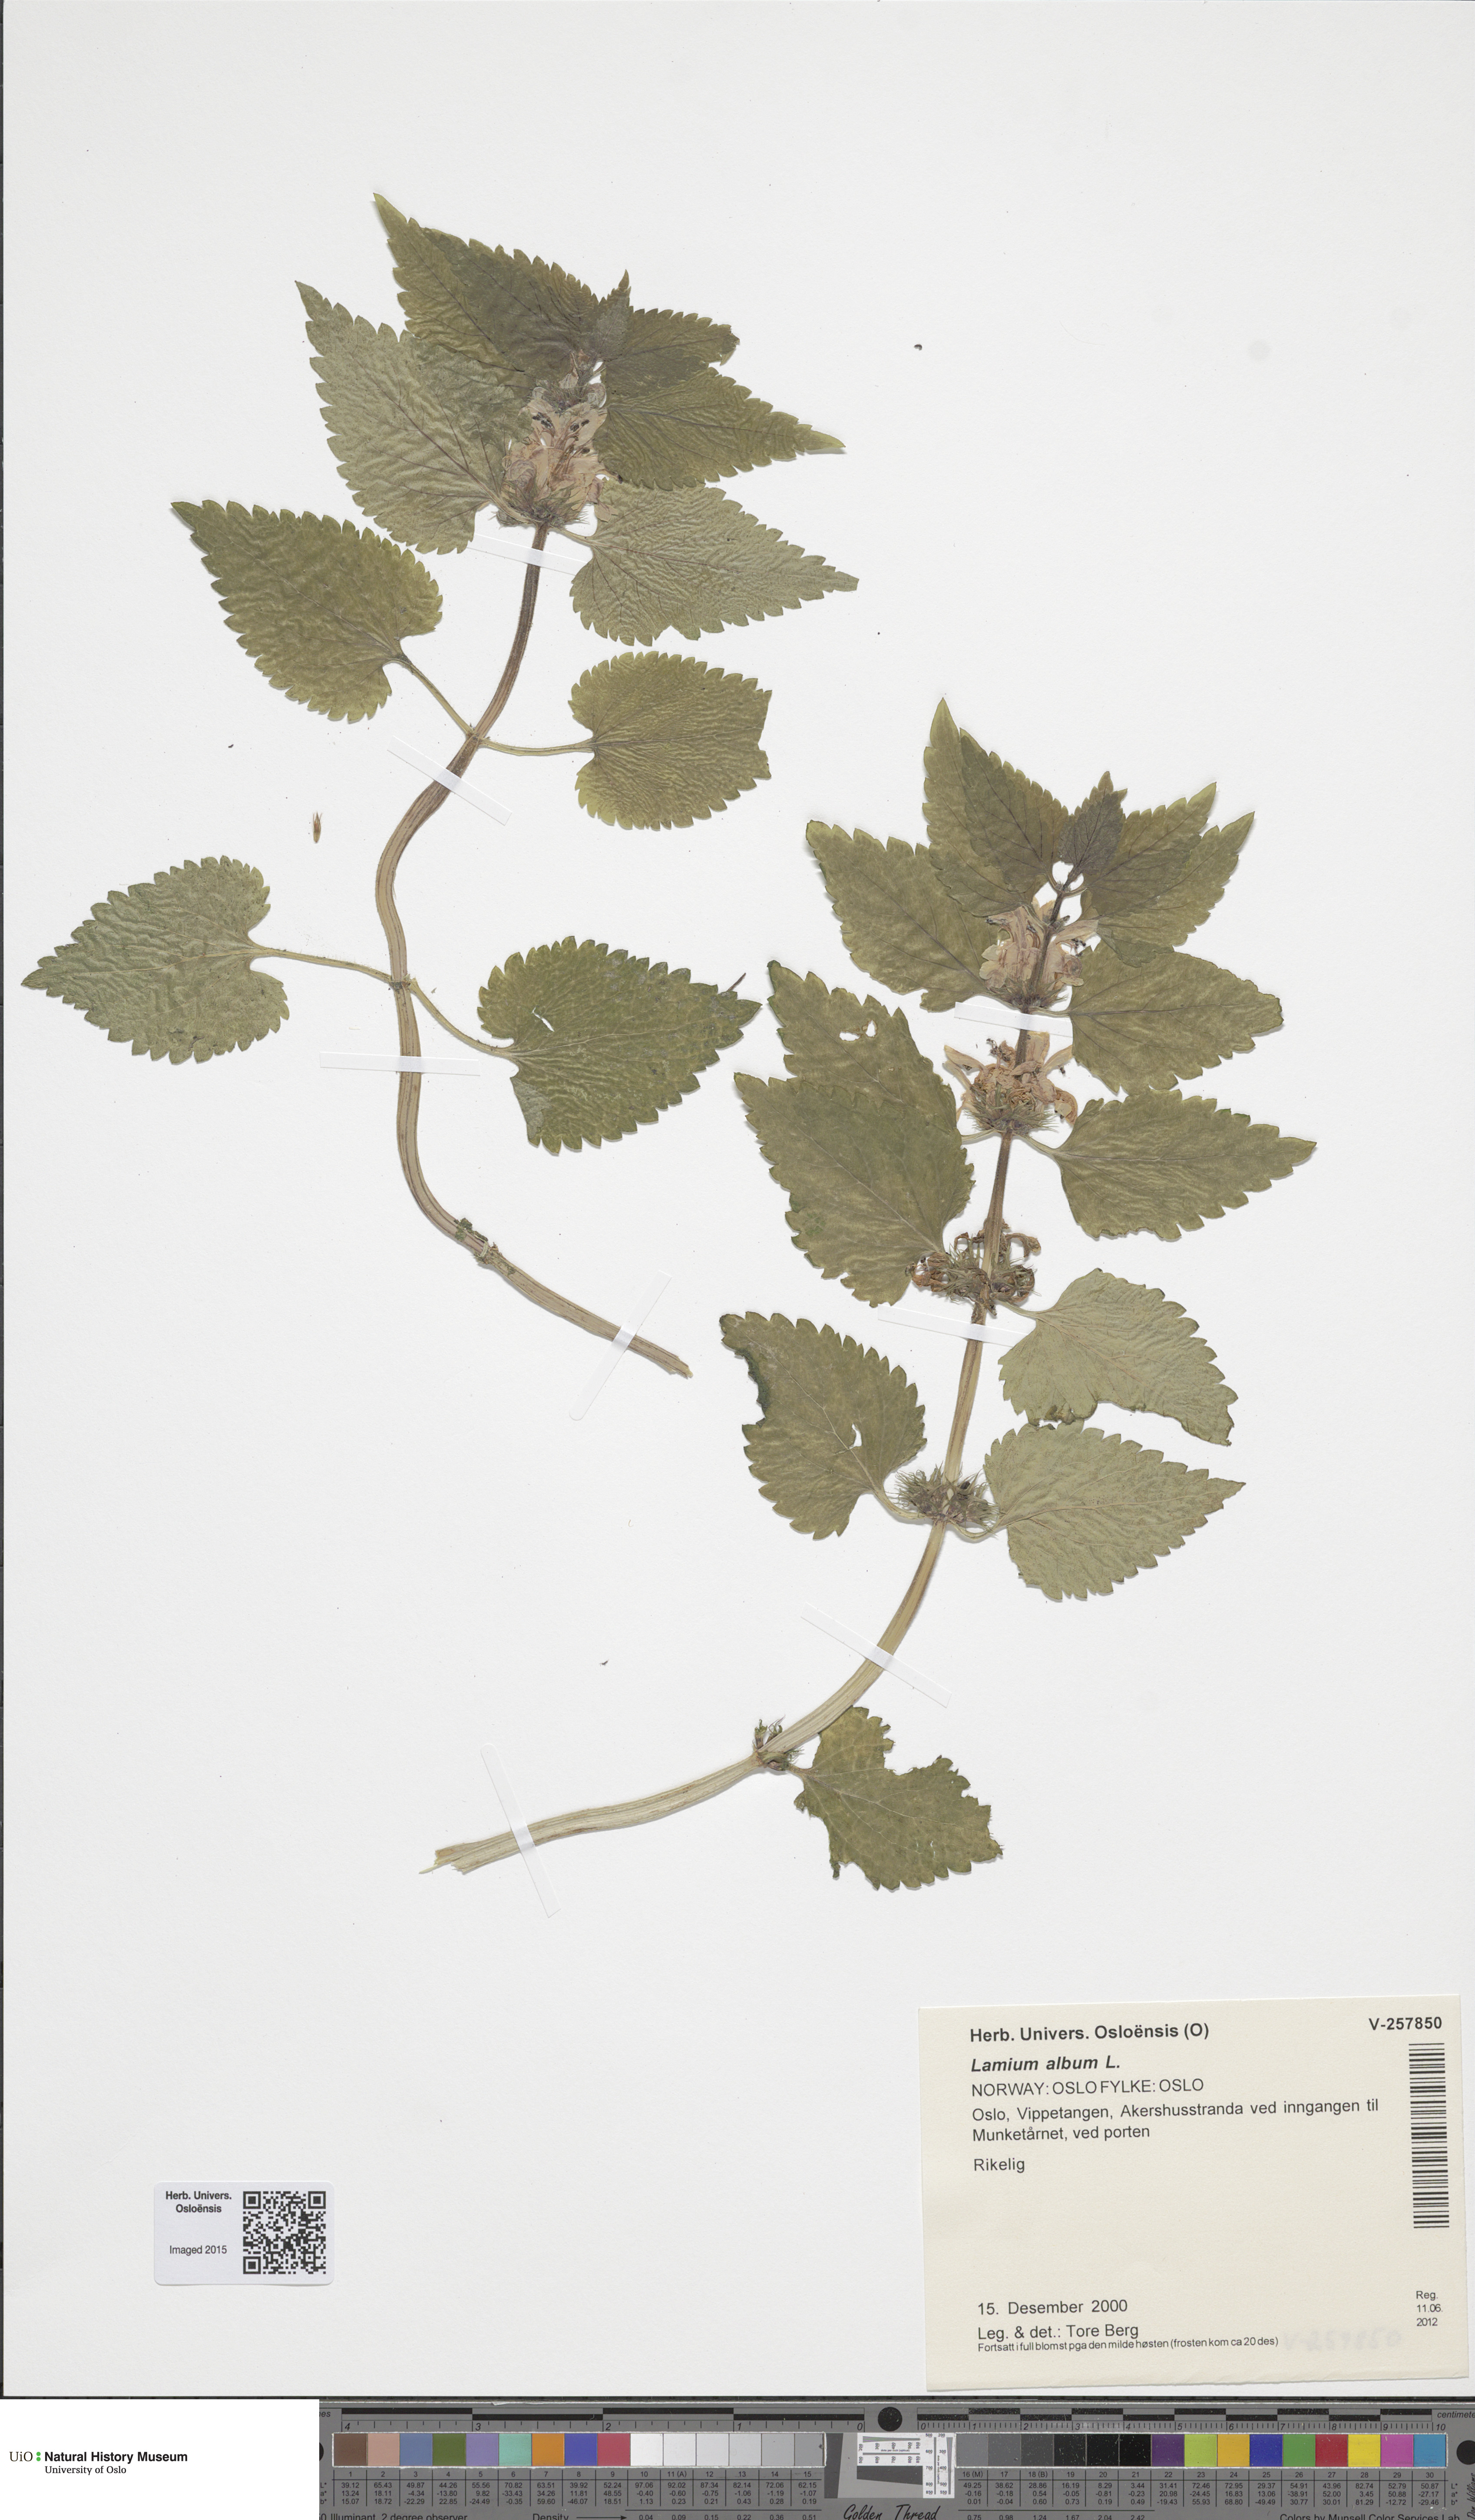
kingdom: Plantae
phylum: Tracheophyta
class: Magnoliopsida
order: Lamiales
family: Lamiaceae
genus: Lamium
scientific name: Lamium album
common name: White dead-nettle
